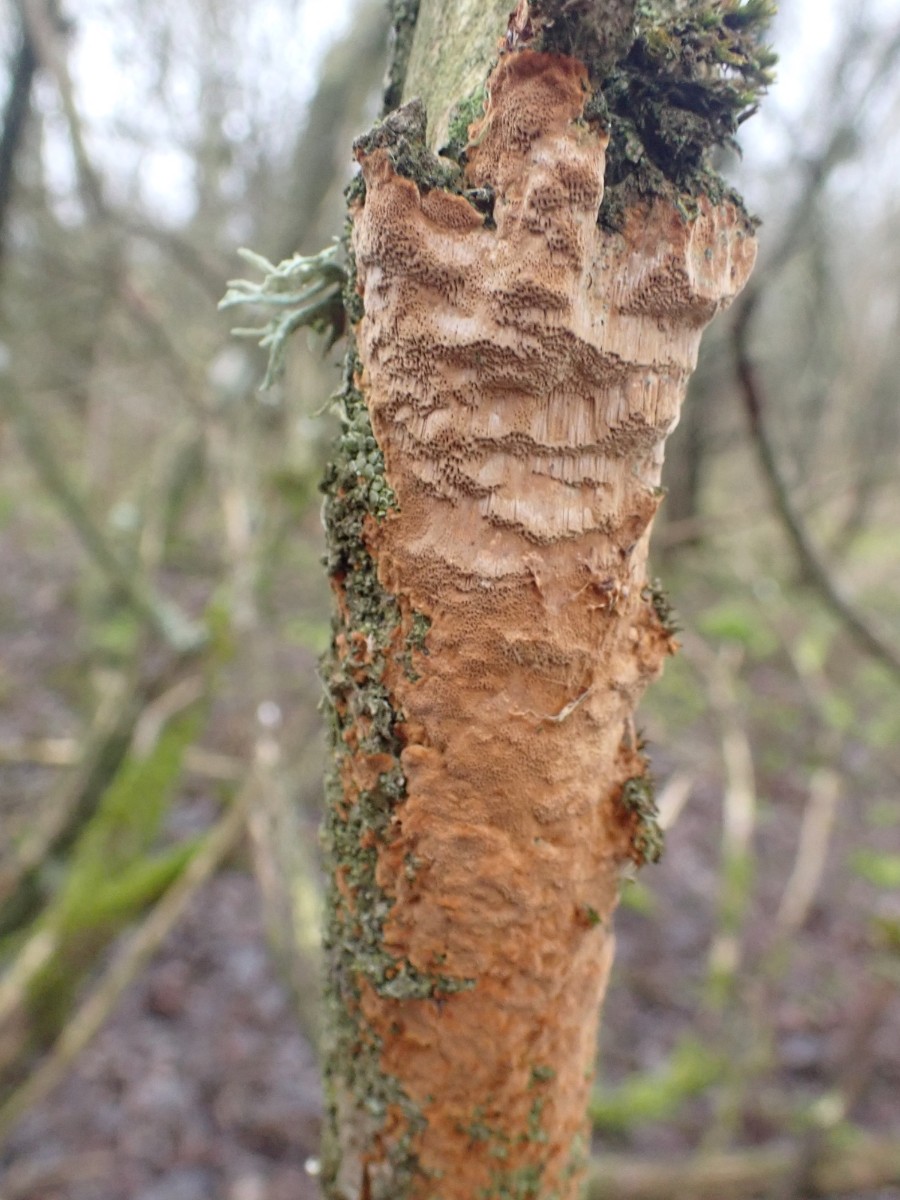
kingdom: Fungi
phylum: Basidiomycota
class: Agaricomycetes
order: Hymenochaetales
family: Hymenochaetaceae
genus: Fuscoporia
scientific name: Fuscoporia ferrea
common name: skorpe-ildporesvamp
